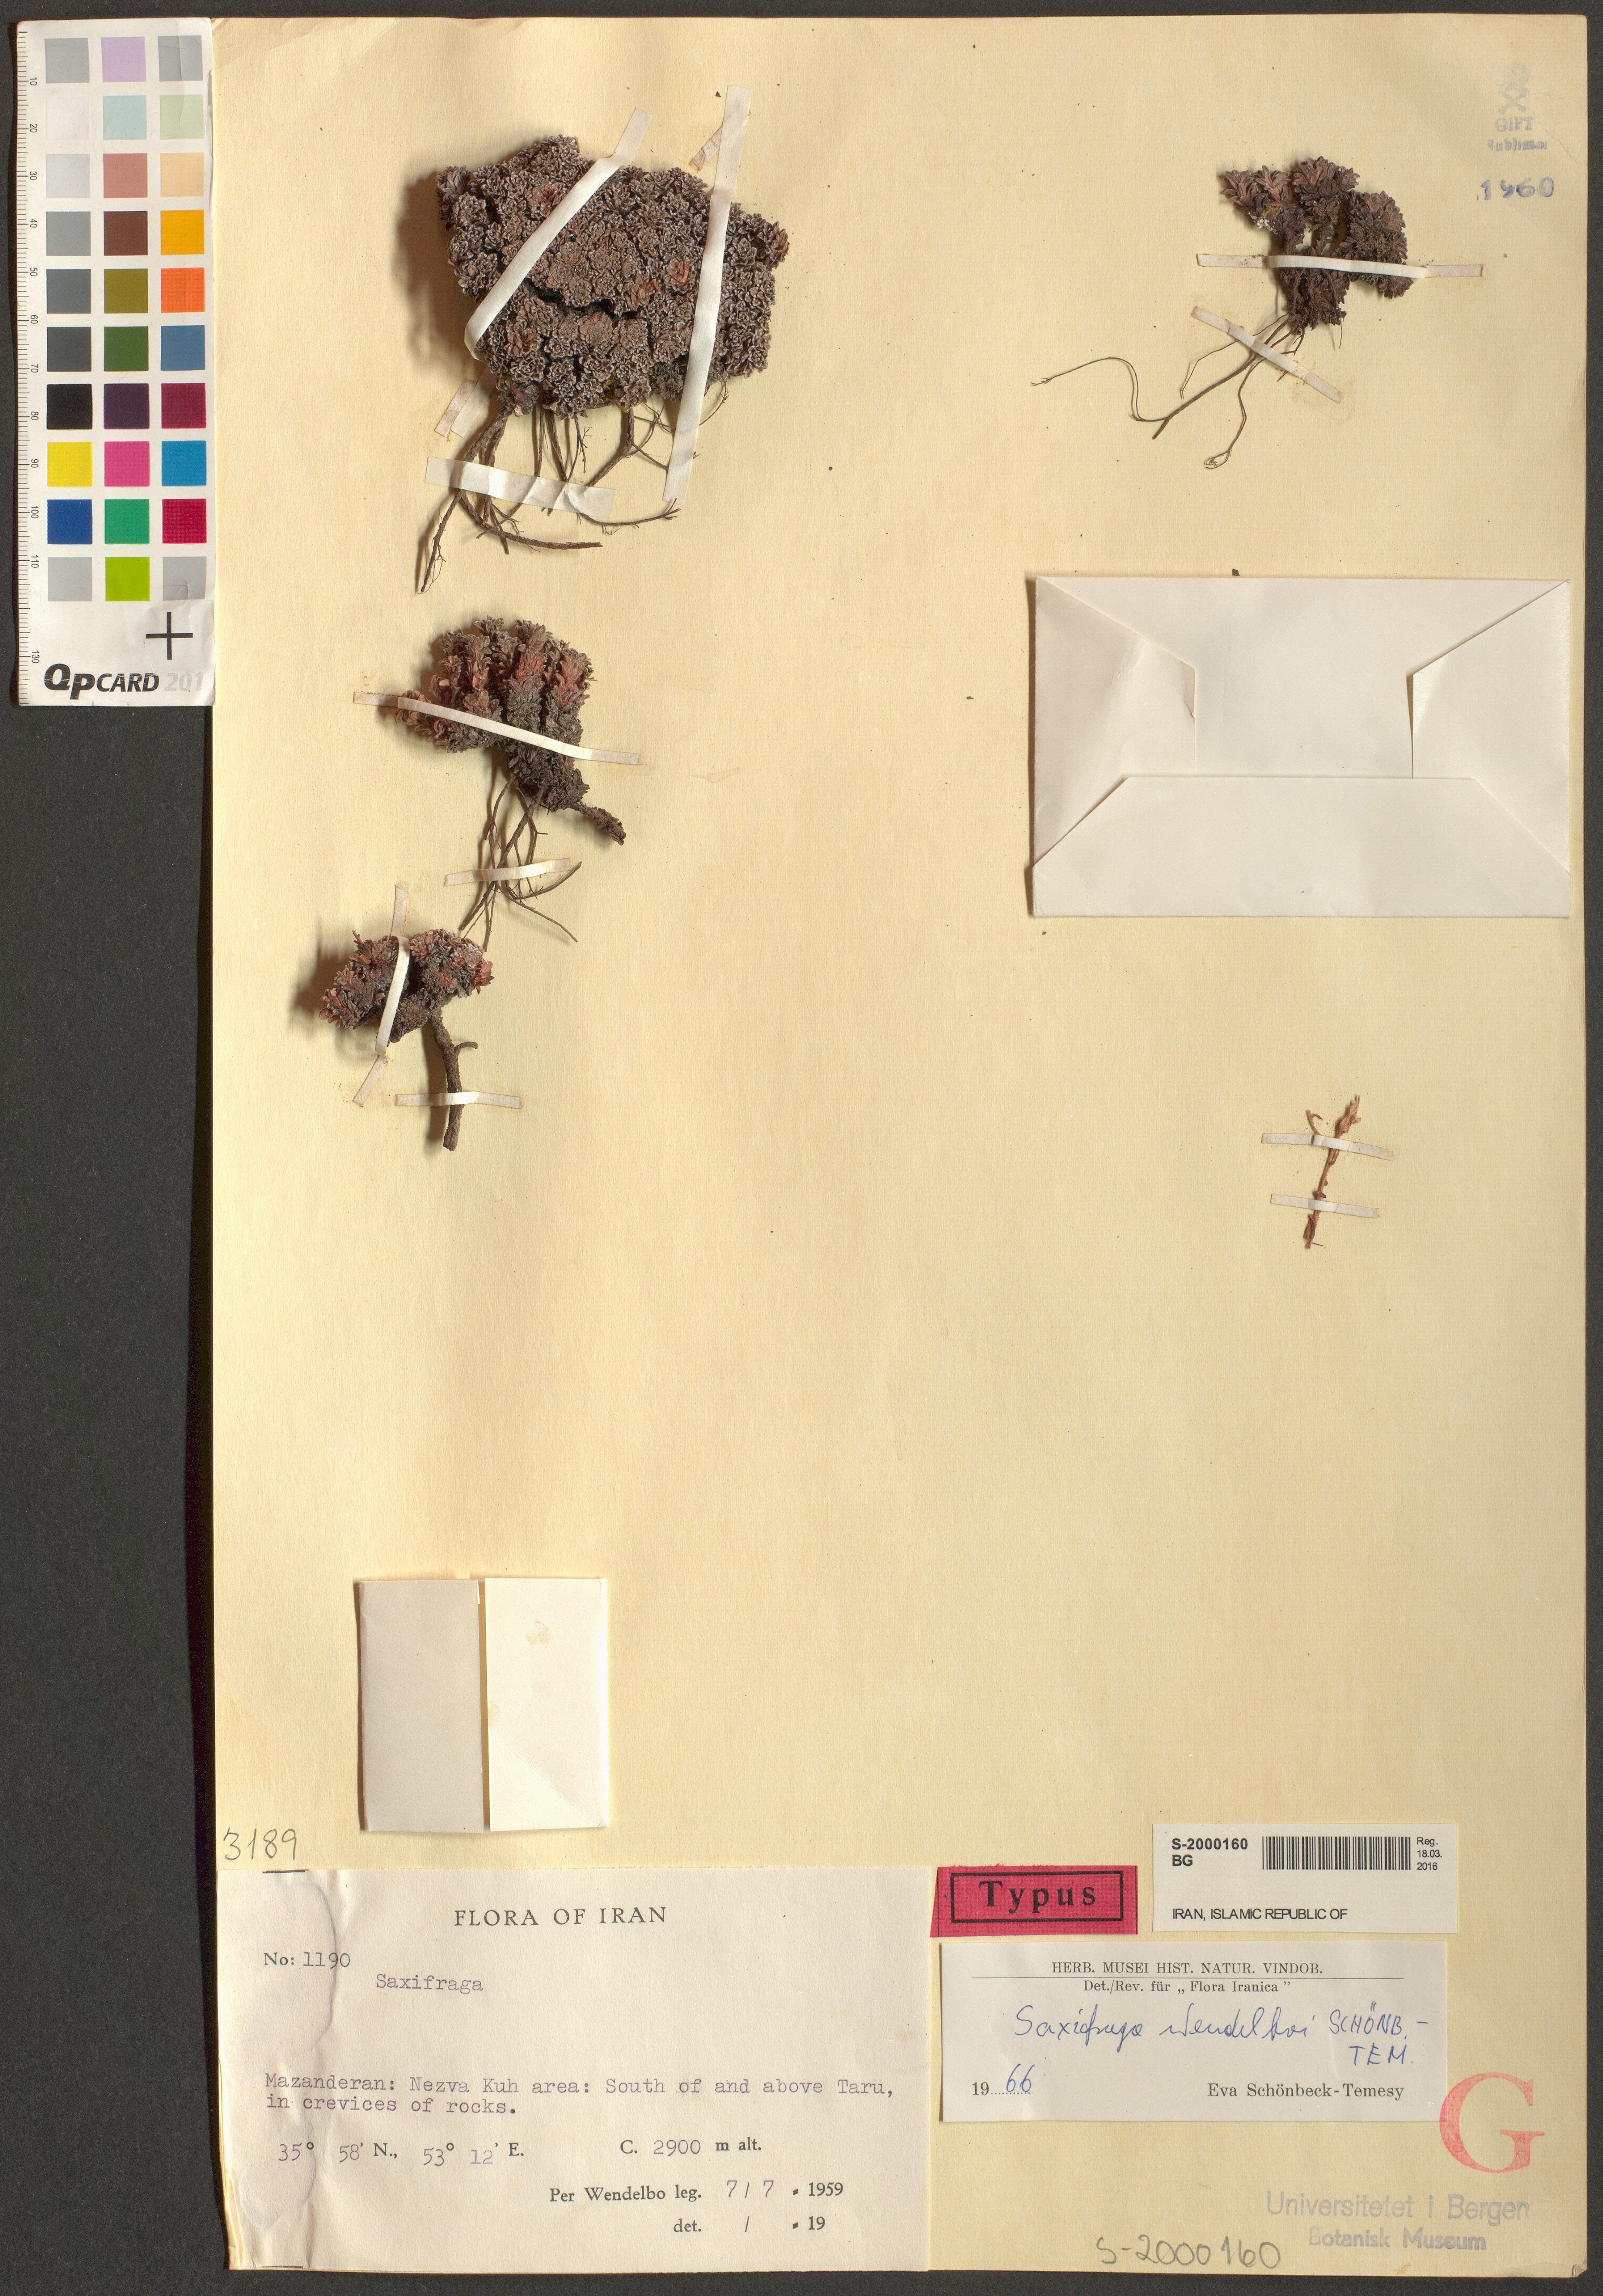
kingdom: Plantae
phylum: Tracheophyta
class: Magnoliopsida
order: Saxifragales
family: Saxifragaceae
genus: Saxifraga
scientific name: Saxifraga wendelboi
